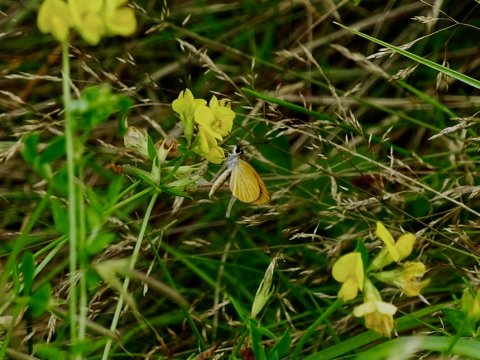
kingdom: Animalia
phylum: Arthropoda
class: Insecta
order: Lepidoptera
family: Hesperiidae
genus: Ancyloxypha
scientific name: Ancyloxypha numitor
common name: Least Skipper
